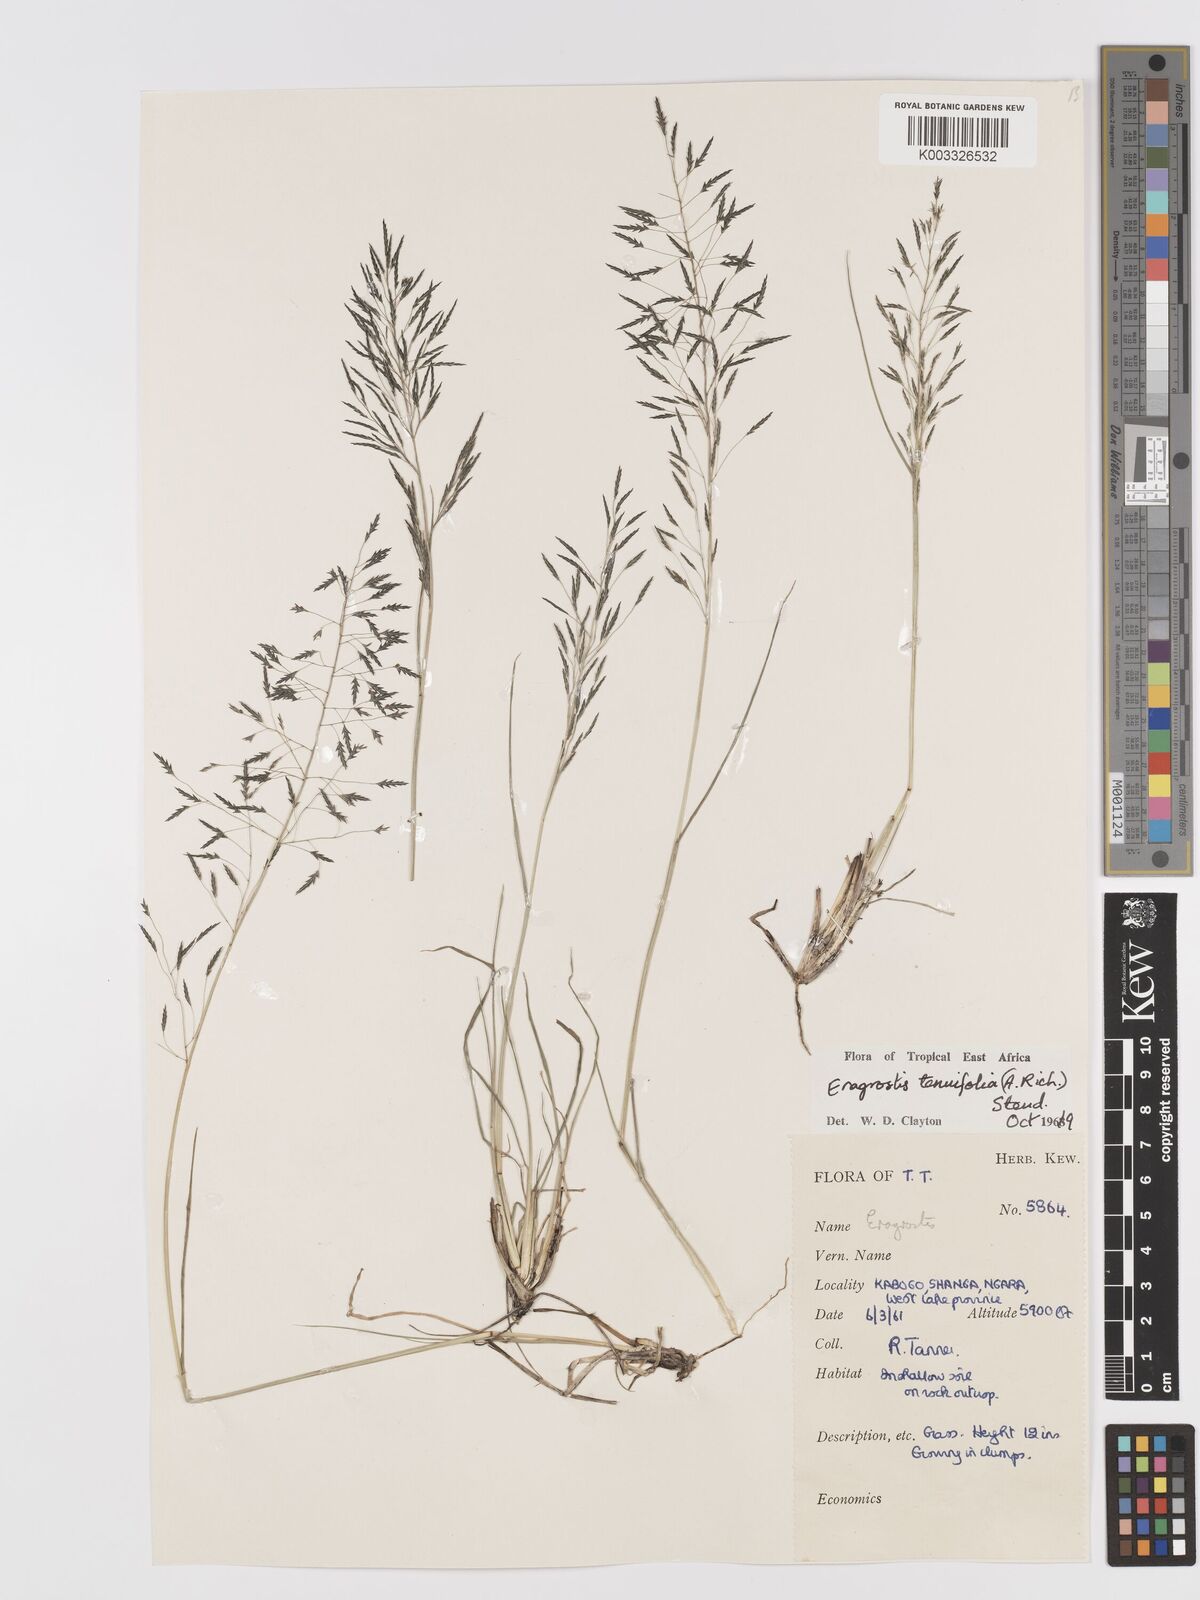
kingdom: Plantae
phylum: Tracheophyta
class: Liliopsida
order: Poales
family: Poaceae
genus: Eragrostis
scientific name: Eragrostis tenuifolia
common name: Elastic grass
